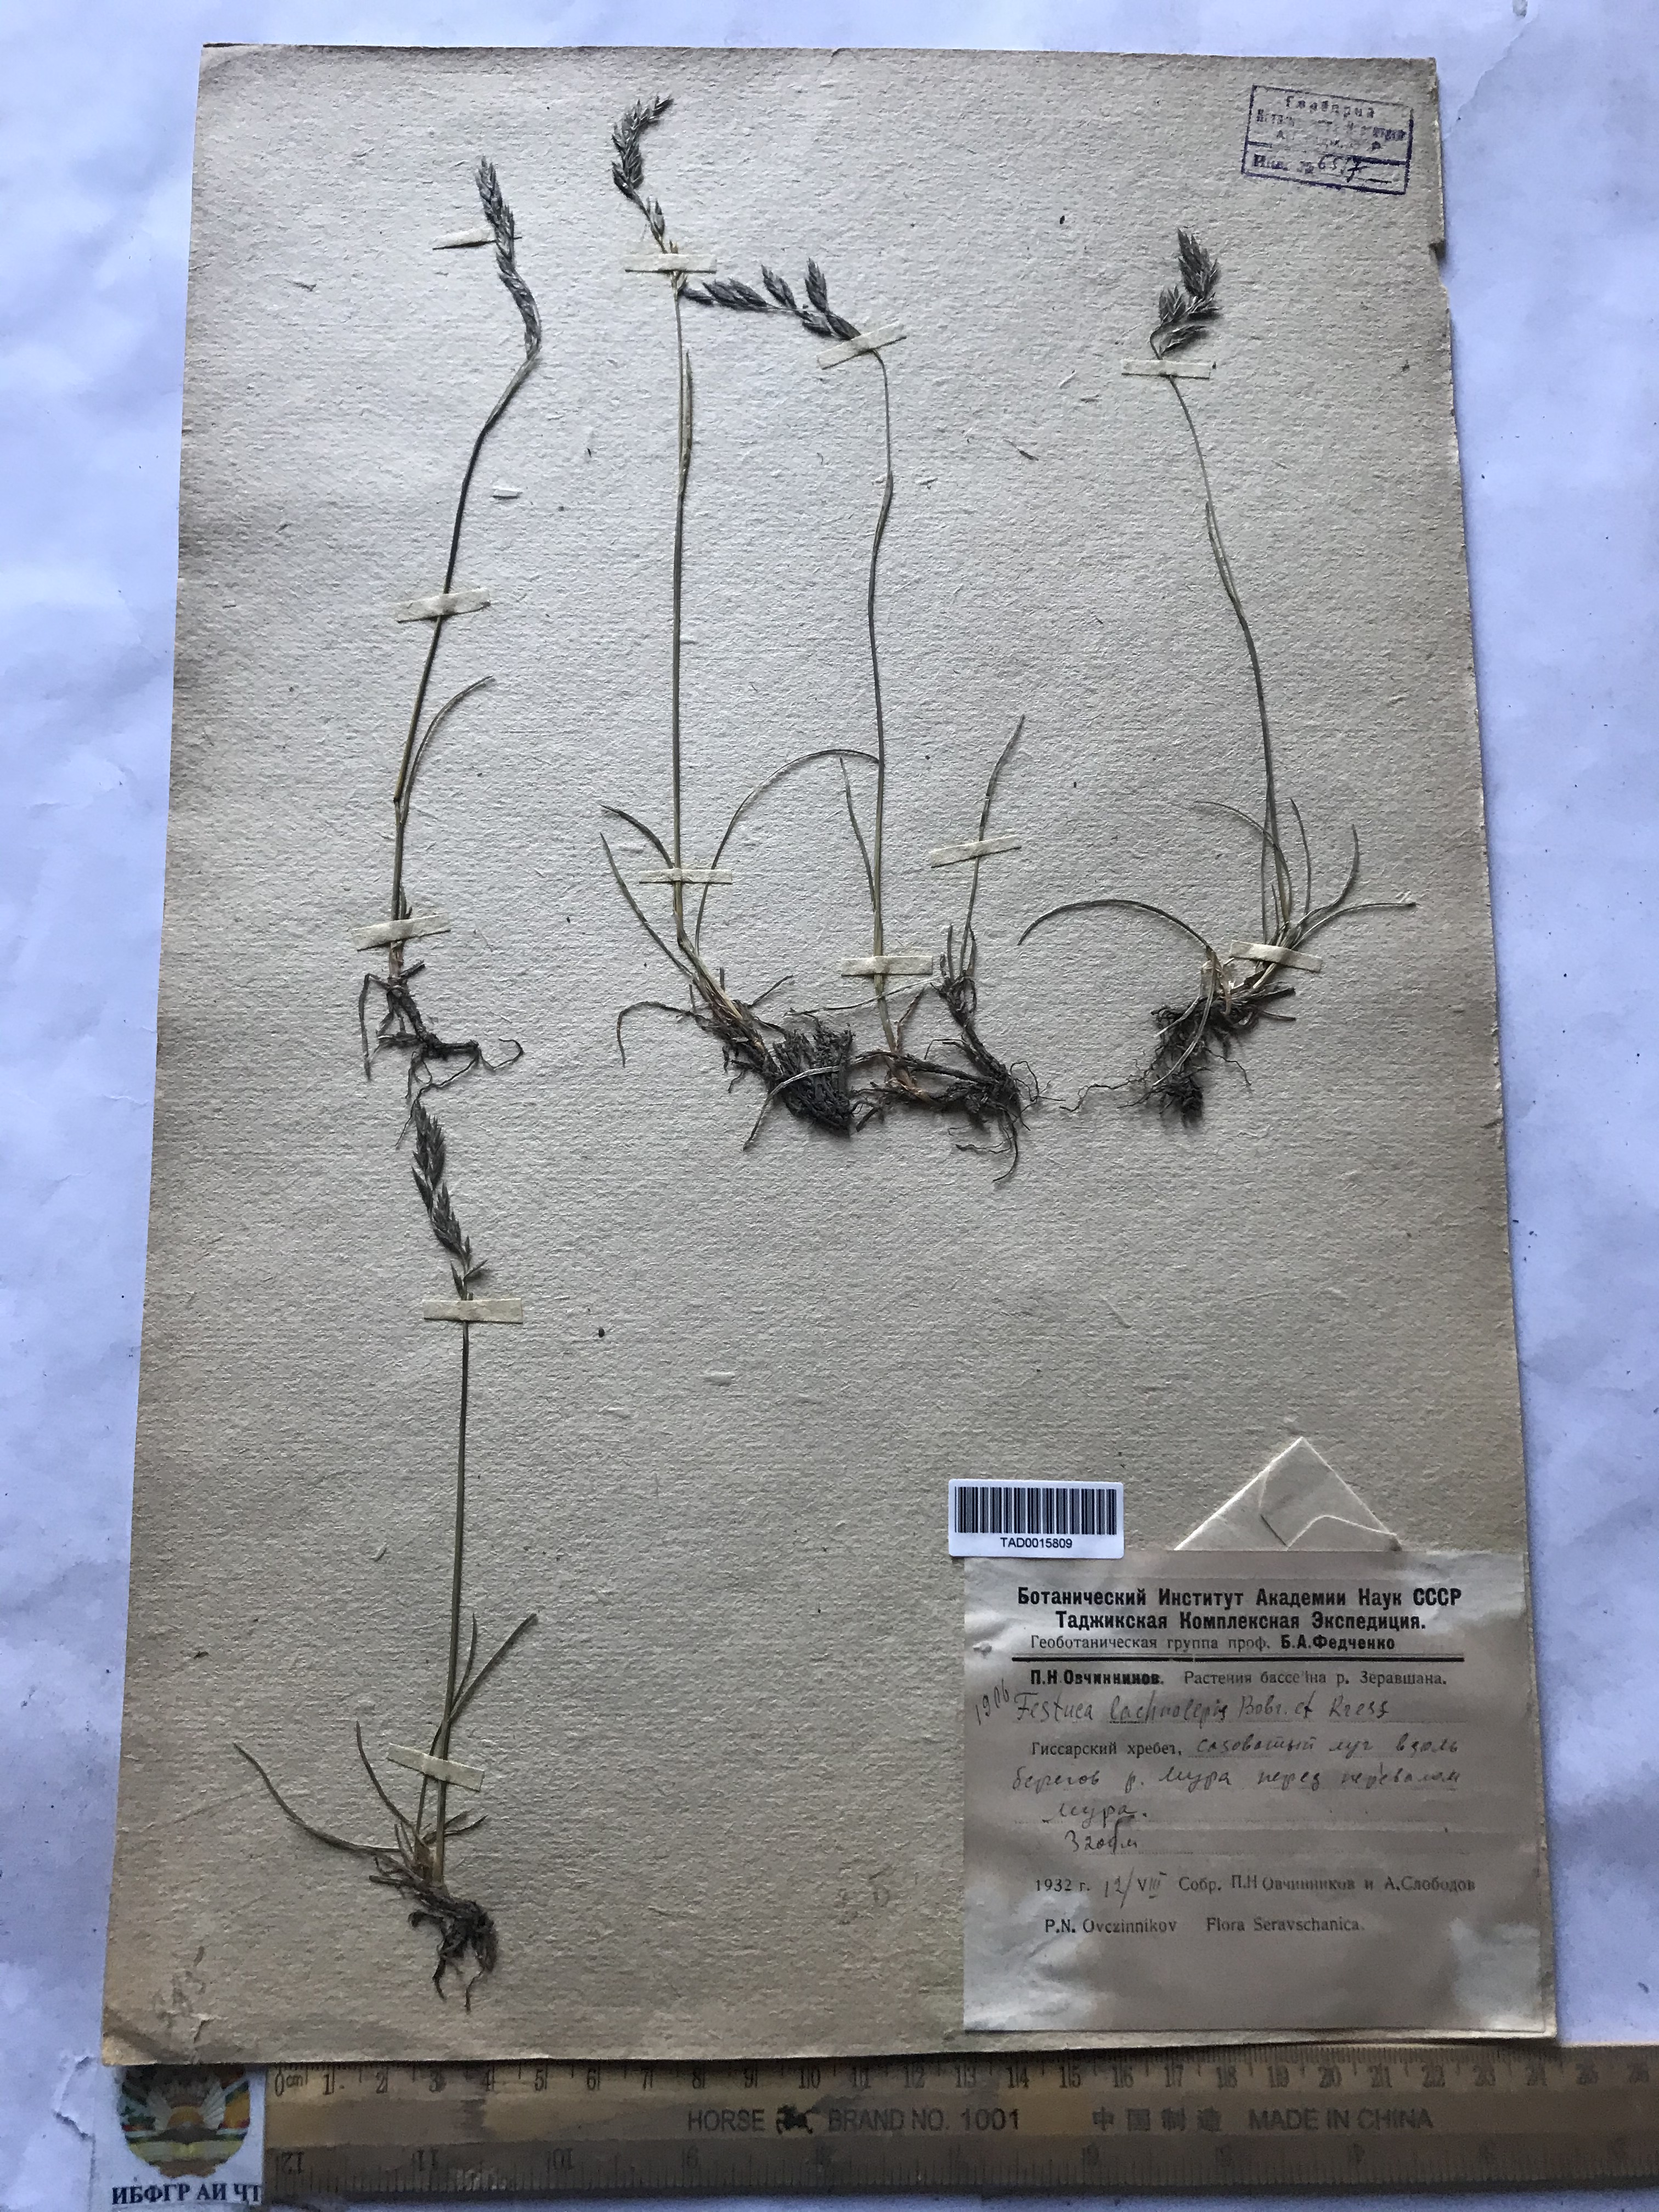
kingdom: Plantae
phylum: Tracheophyta
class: Liliopsida
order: Poales
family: Poaceae
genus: Festuca
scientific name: Festuca rubra
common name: Red fescue
